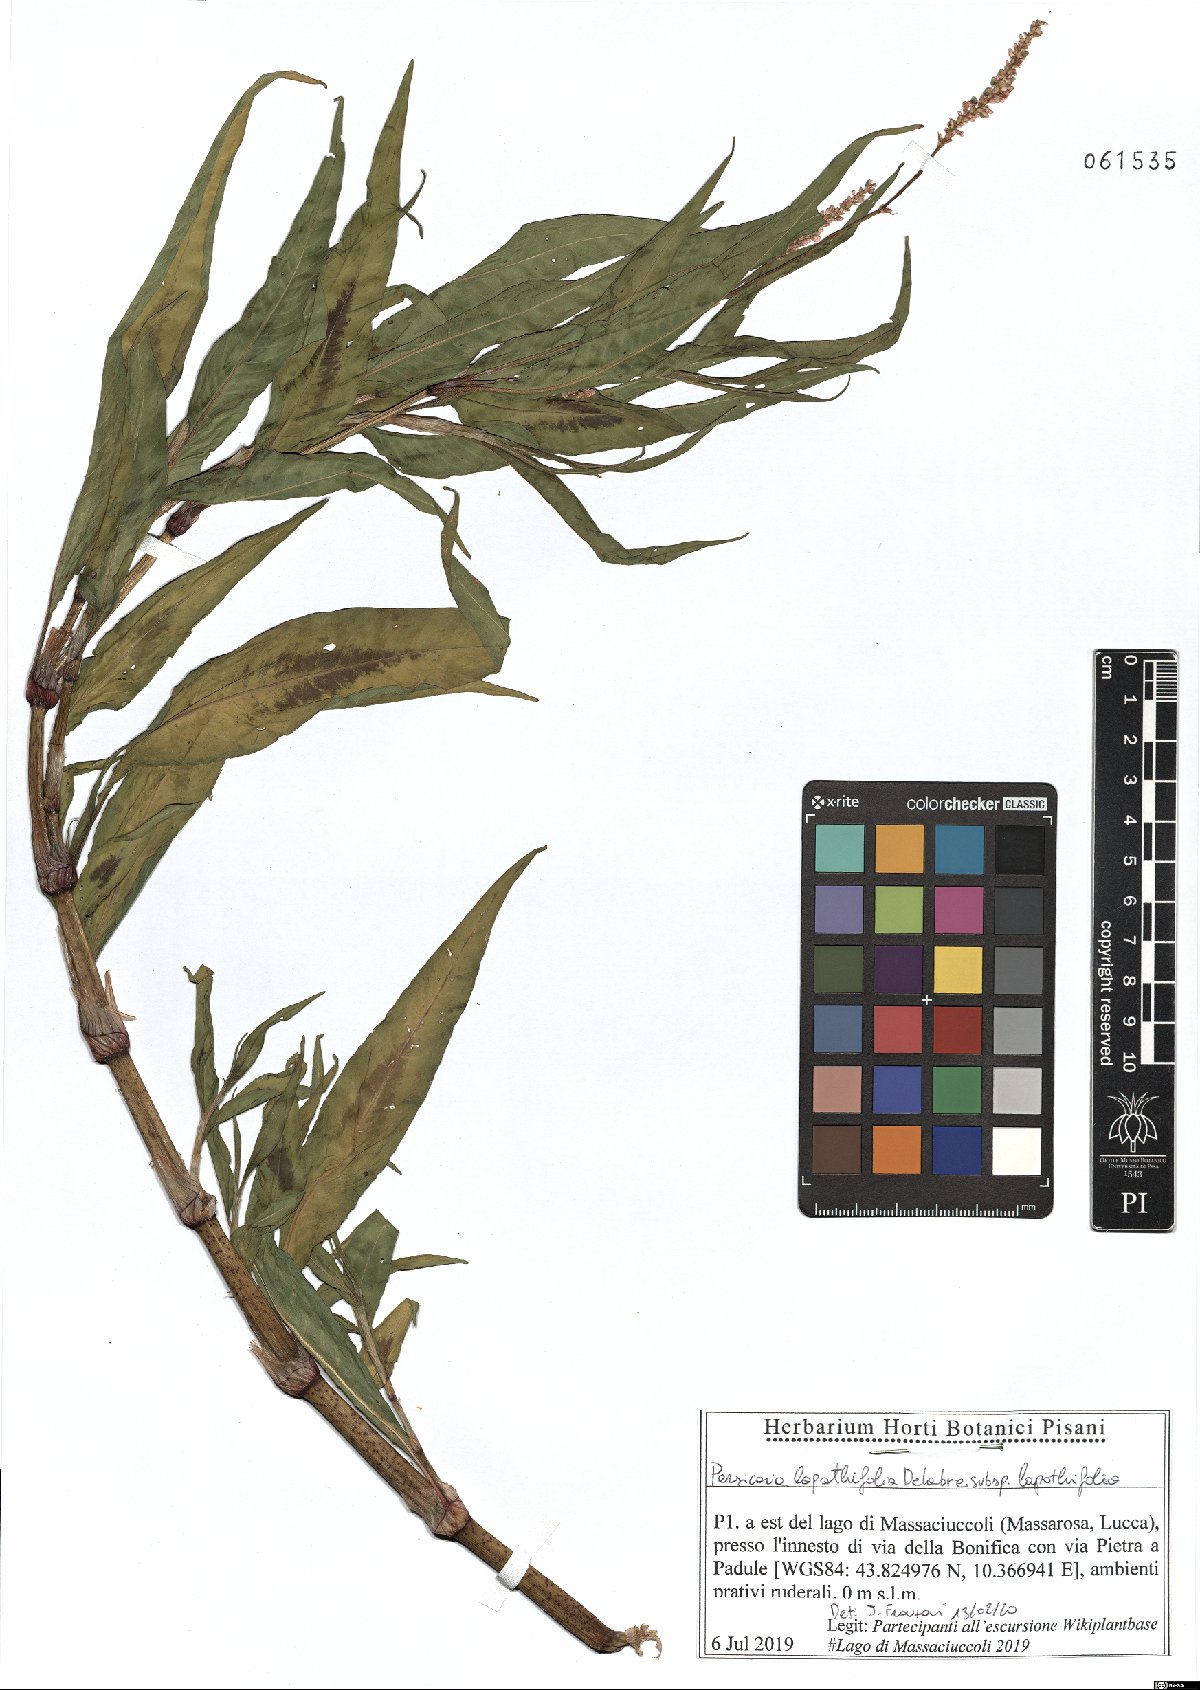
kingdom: Plantae
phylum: Tracheophyta
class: Magnoliopsida
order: Caryophyllales
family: Polygonaceae
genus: Persicaria
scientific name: Persicaria lapathifolia
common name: Curlytop knotweed
